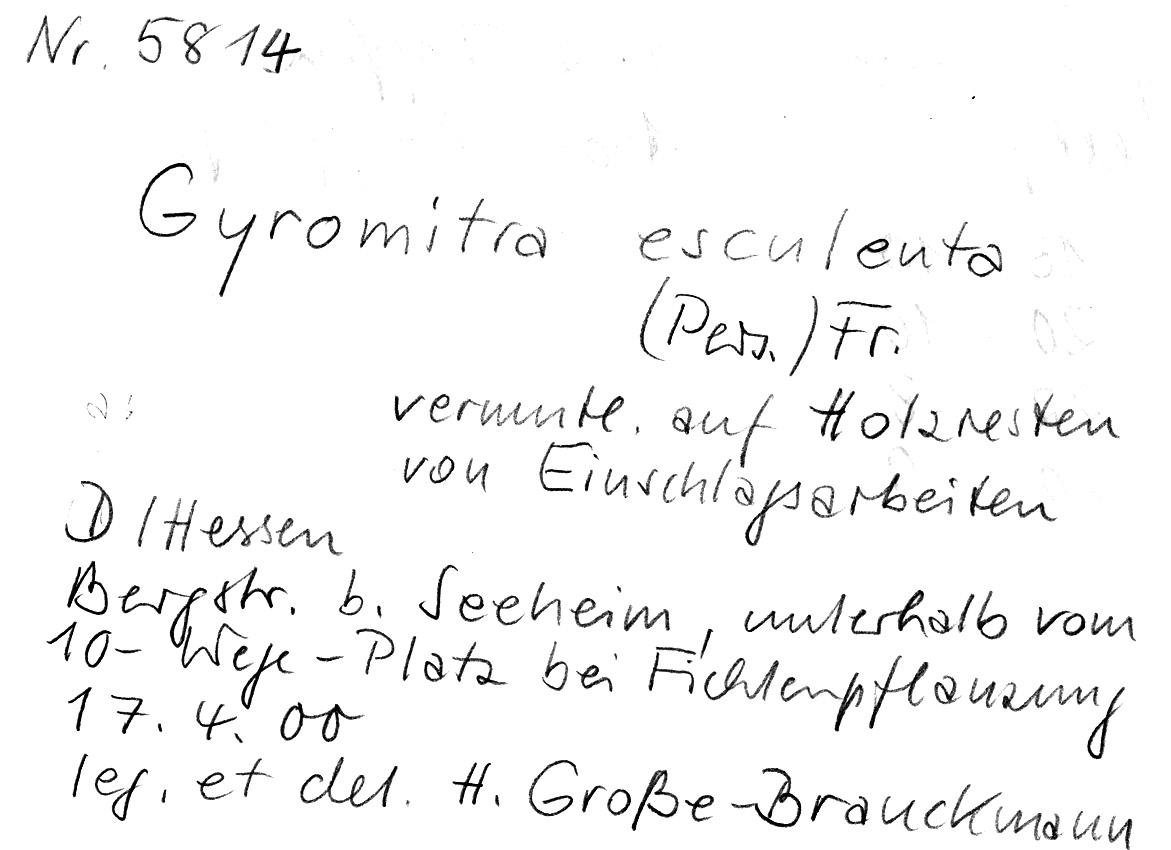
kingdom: Fungi
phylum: Ascomycota
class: Pezizomycetes
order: Pezizales
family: Discinaceae
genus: Gyromitra
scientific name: Gyromitra esculenta
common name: False morel
